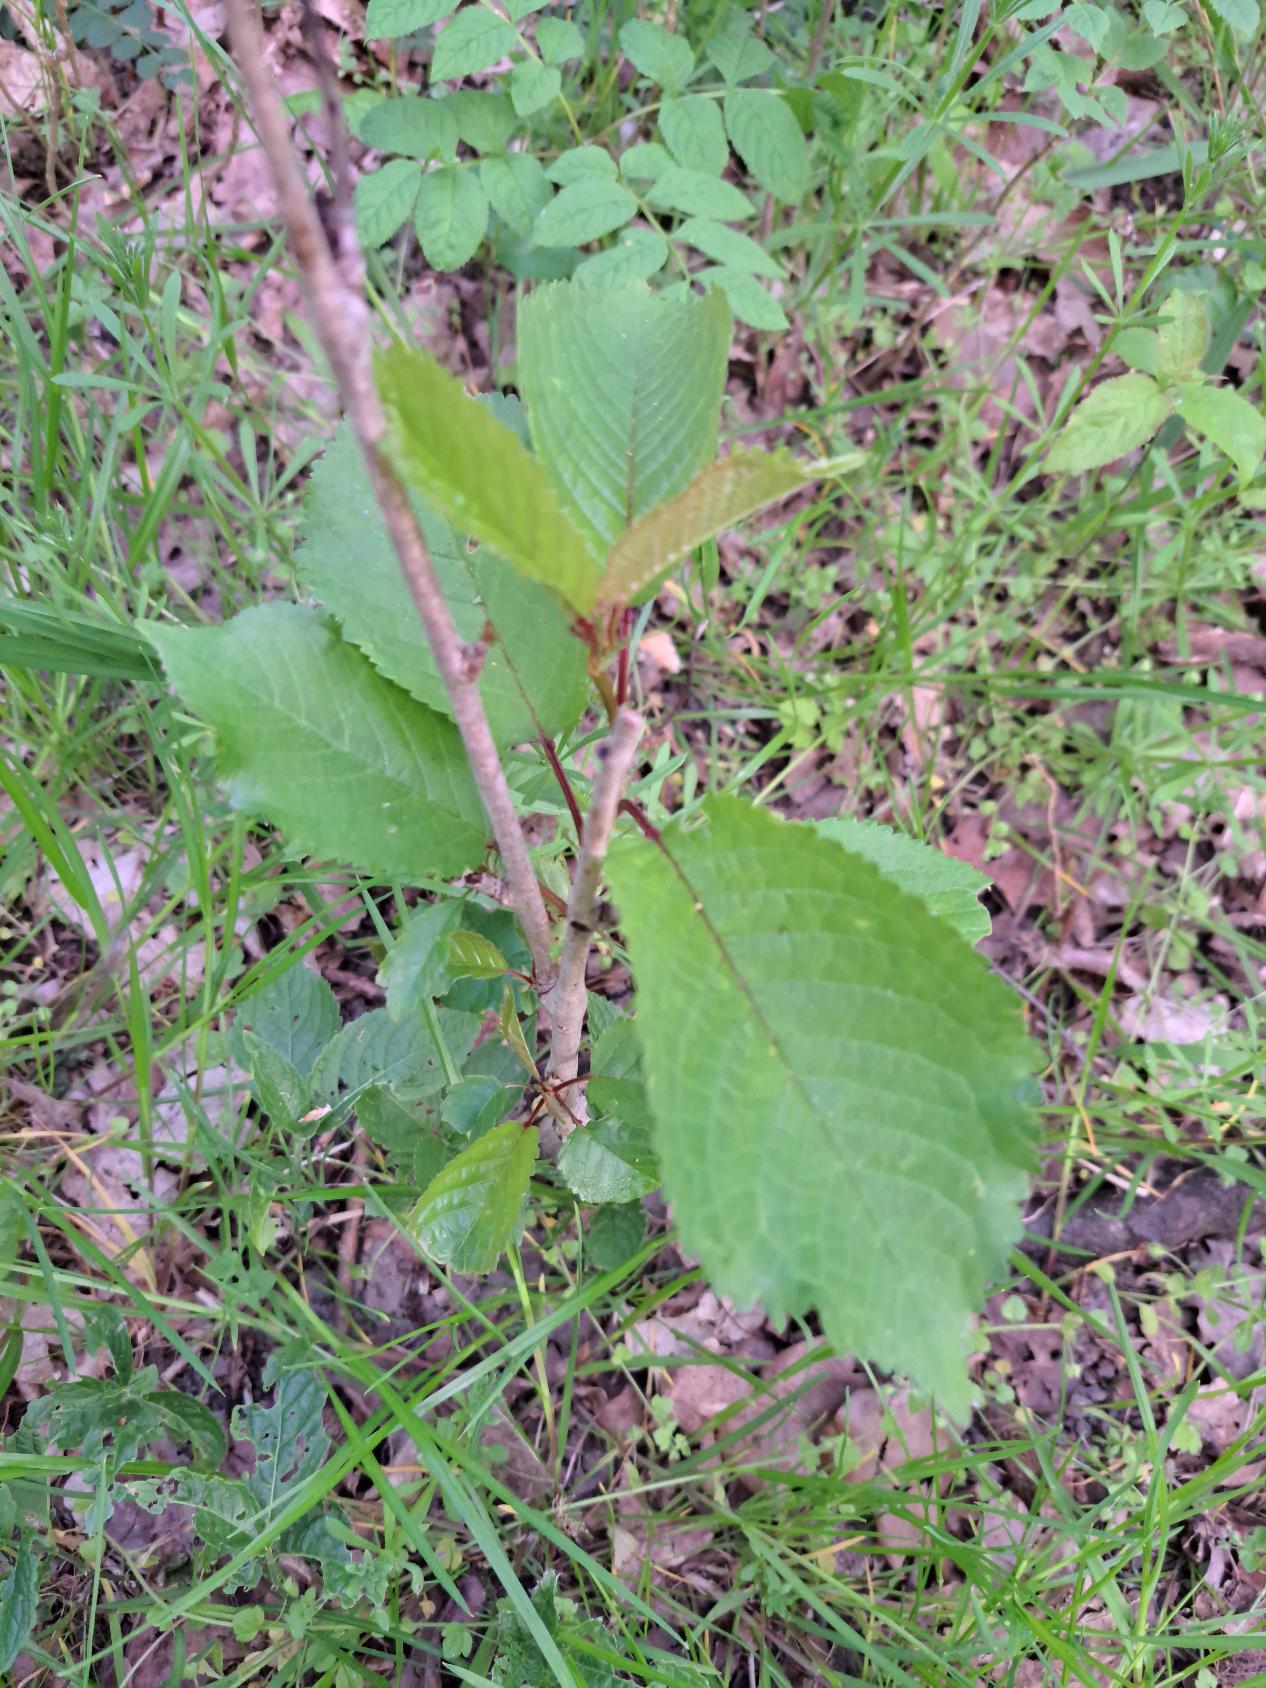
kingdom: Plantae
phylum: Tracheophyta
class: Magnoliopsida
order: Rosales
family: Rosaceae
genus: Prunus
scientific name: Prunus avium
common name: Fugle-kirsebær
